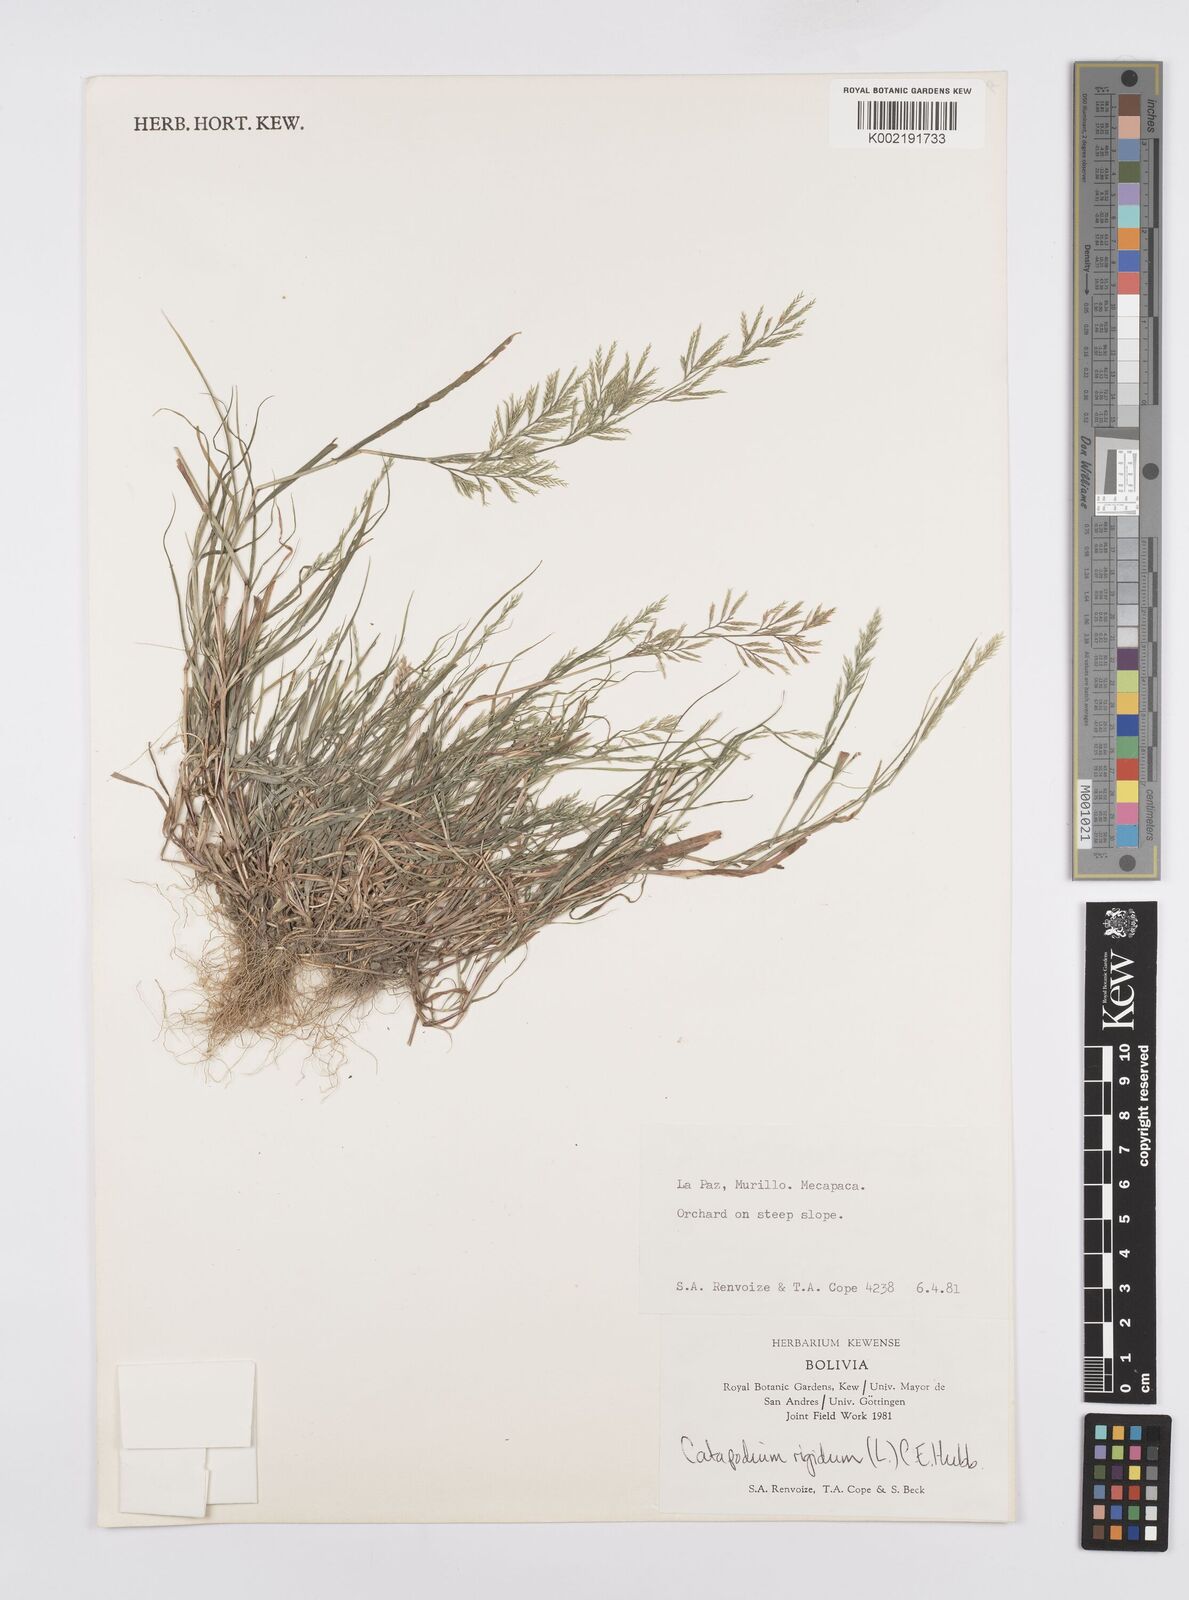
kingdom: Plantae
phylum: Tracheophyta
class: Liliopsida
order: Poales
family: Poaceae
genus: Catapodium
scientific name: Catapodium rigidum
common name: Fern-grass
